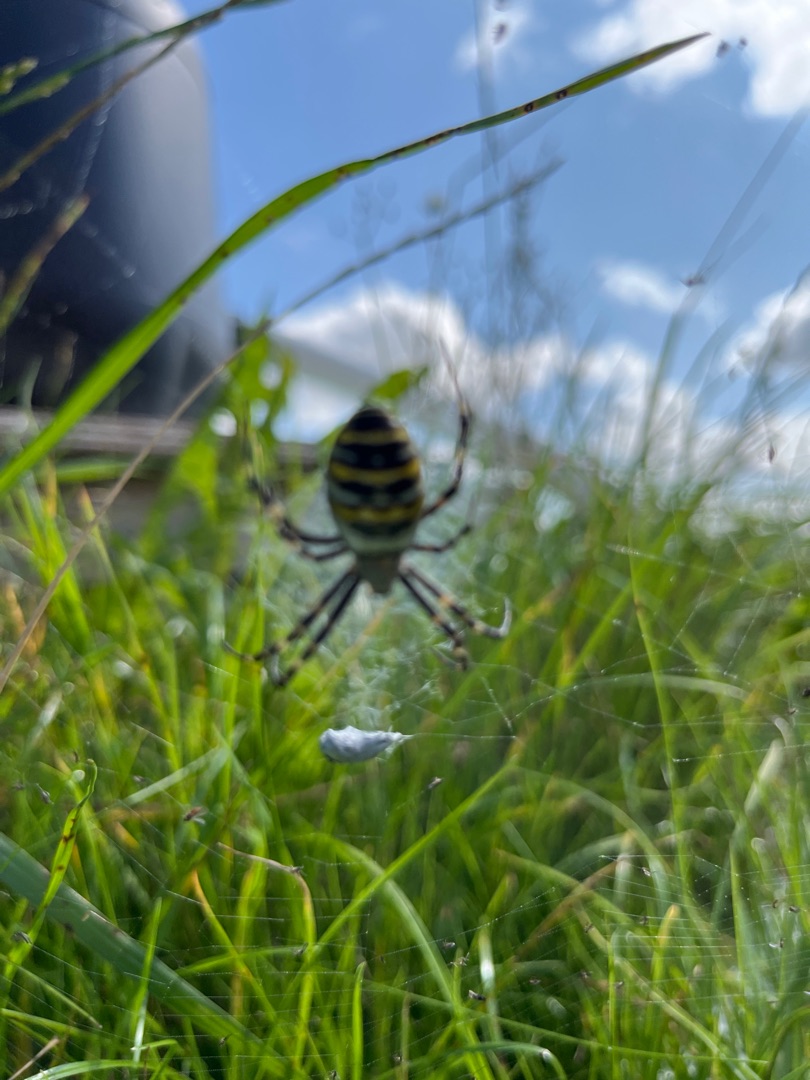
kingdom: Animalia
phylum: Arthropoda
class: Arachnida
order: Araneae
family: Araneidae
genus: Argiope
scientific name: Argiope bruennichi
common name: Hvepseedderkop
